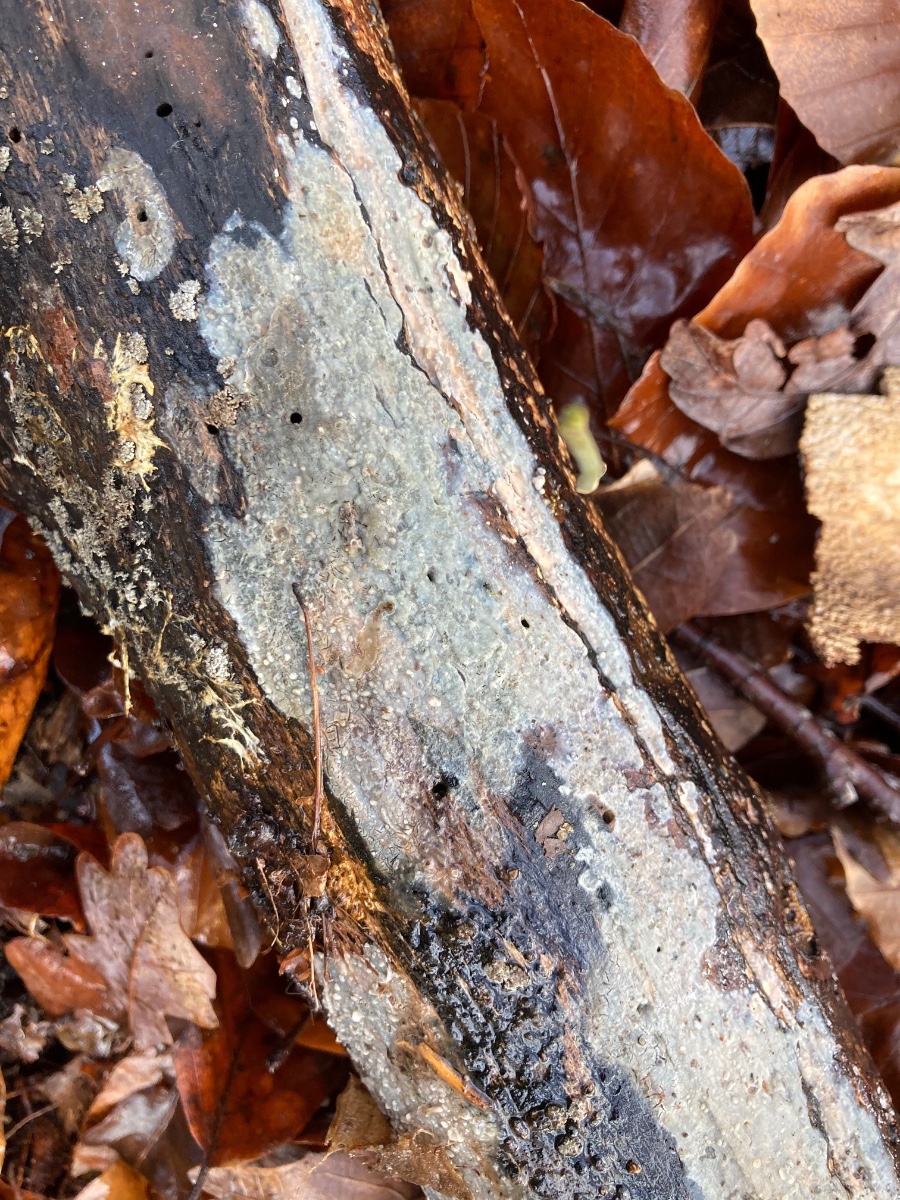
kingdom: Fungi
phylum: Basidiomycota
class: Agaricomycetes
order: Agaricales
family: Radulomycetaceae
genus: Radulomyces
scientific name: Radulomyces confluens
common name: glat naftalinskind
